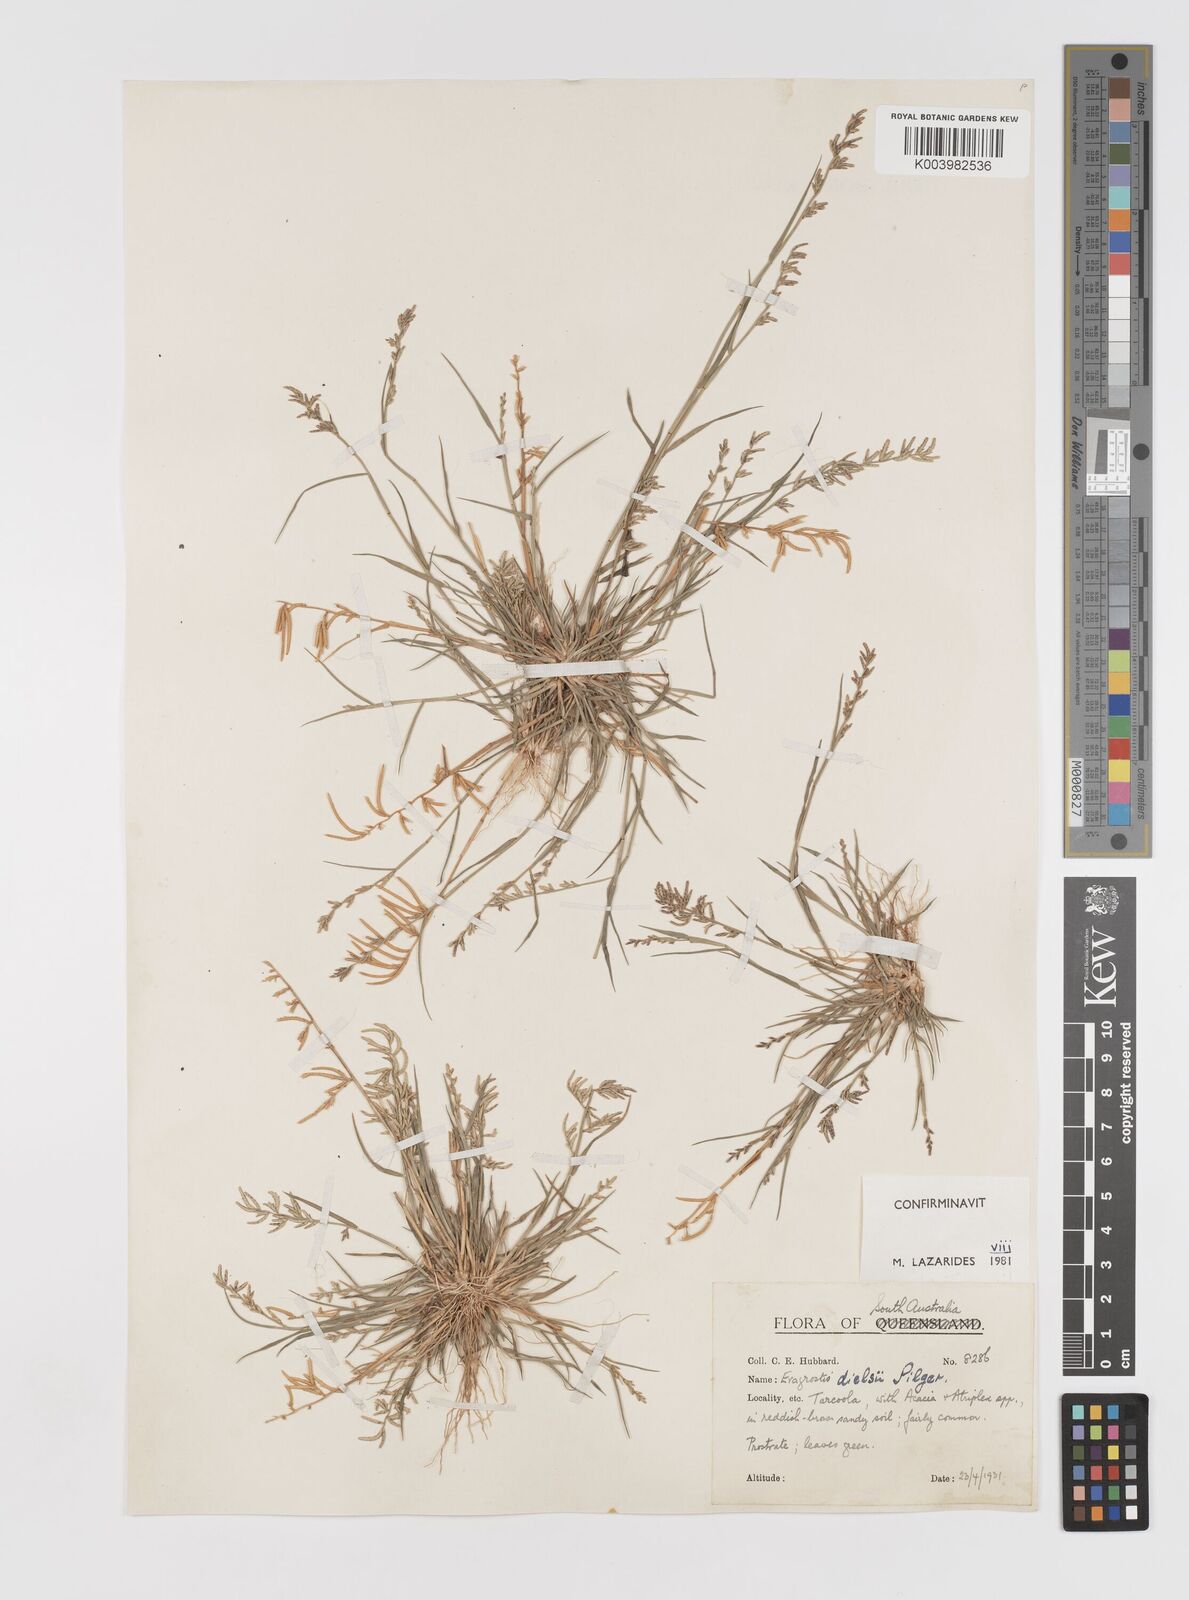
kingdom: Plantae
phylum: Tracheophyta
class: Liliopsida
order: Poales
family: Poaceae
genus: Eragrostis
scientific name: Eragrostis dielsii
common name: Lovegrass
